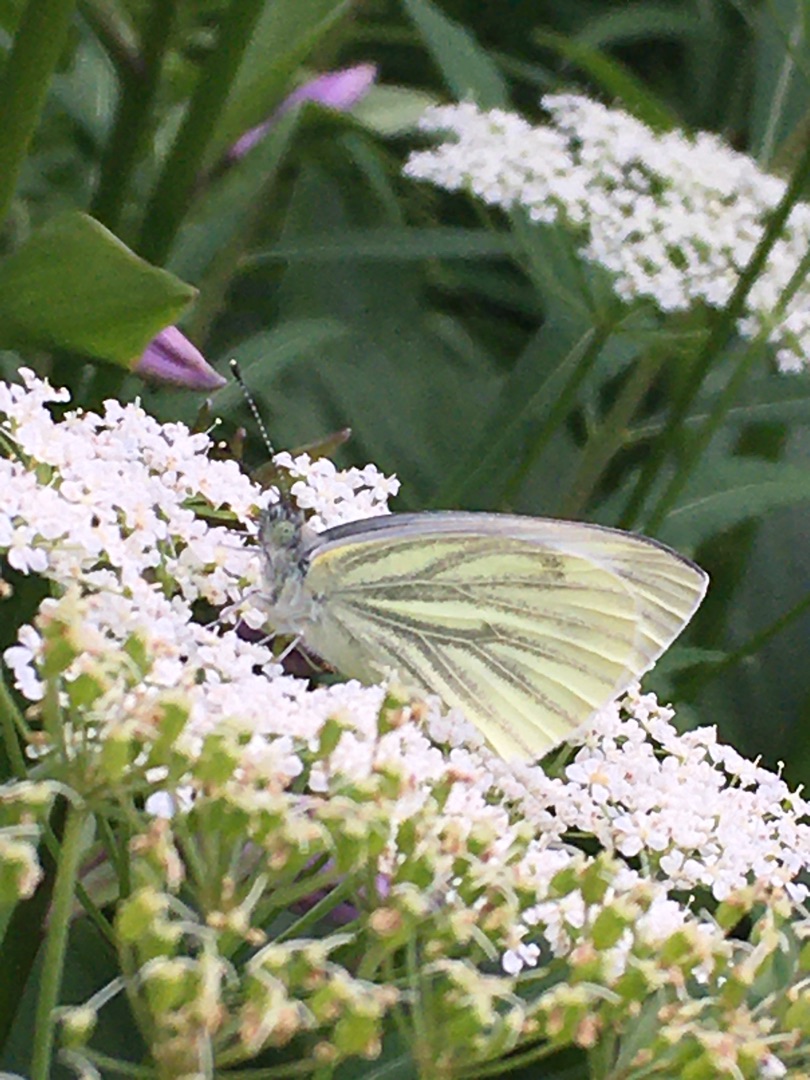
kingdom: Animalia
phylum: Arthropoda
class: Insecta
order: Lepidoptera
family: Pieridae
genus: Pieris
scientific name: Pieris napi
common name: Grønåret kålsommerfugl
